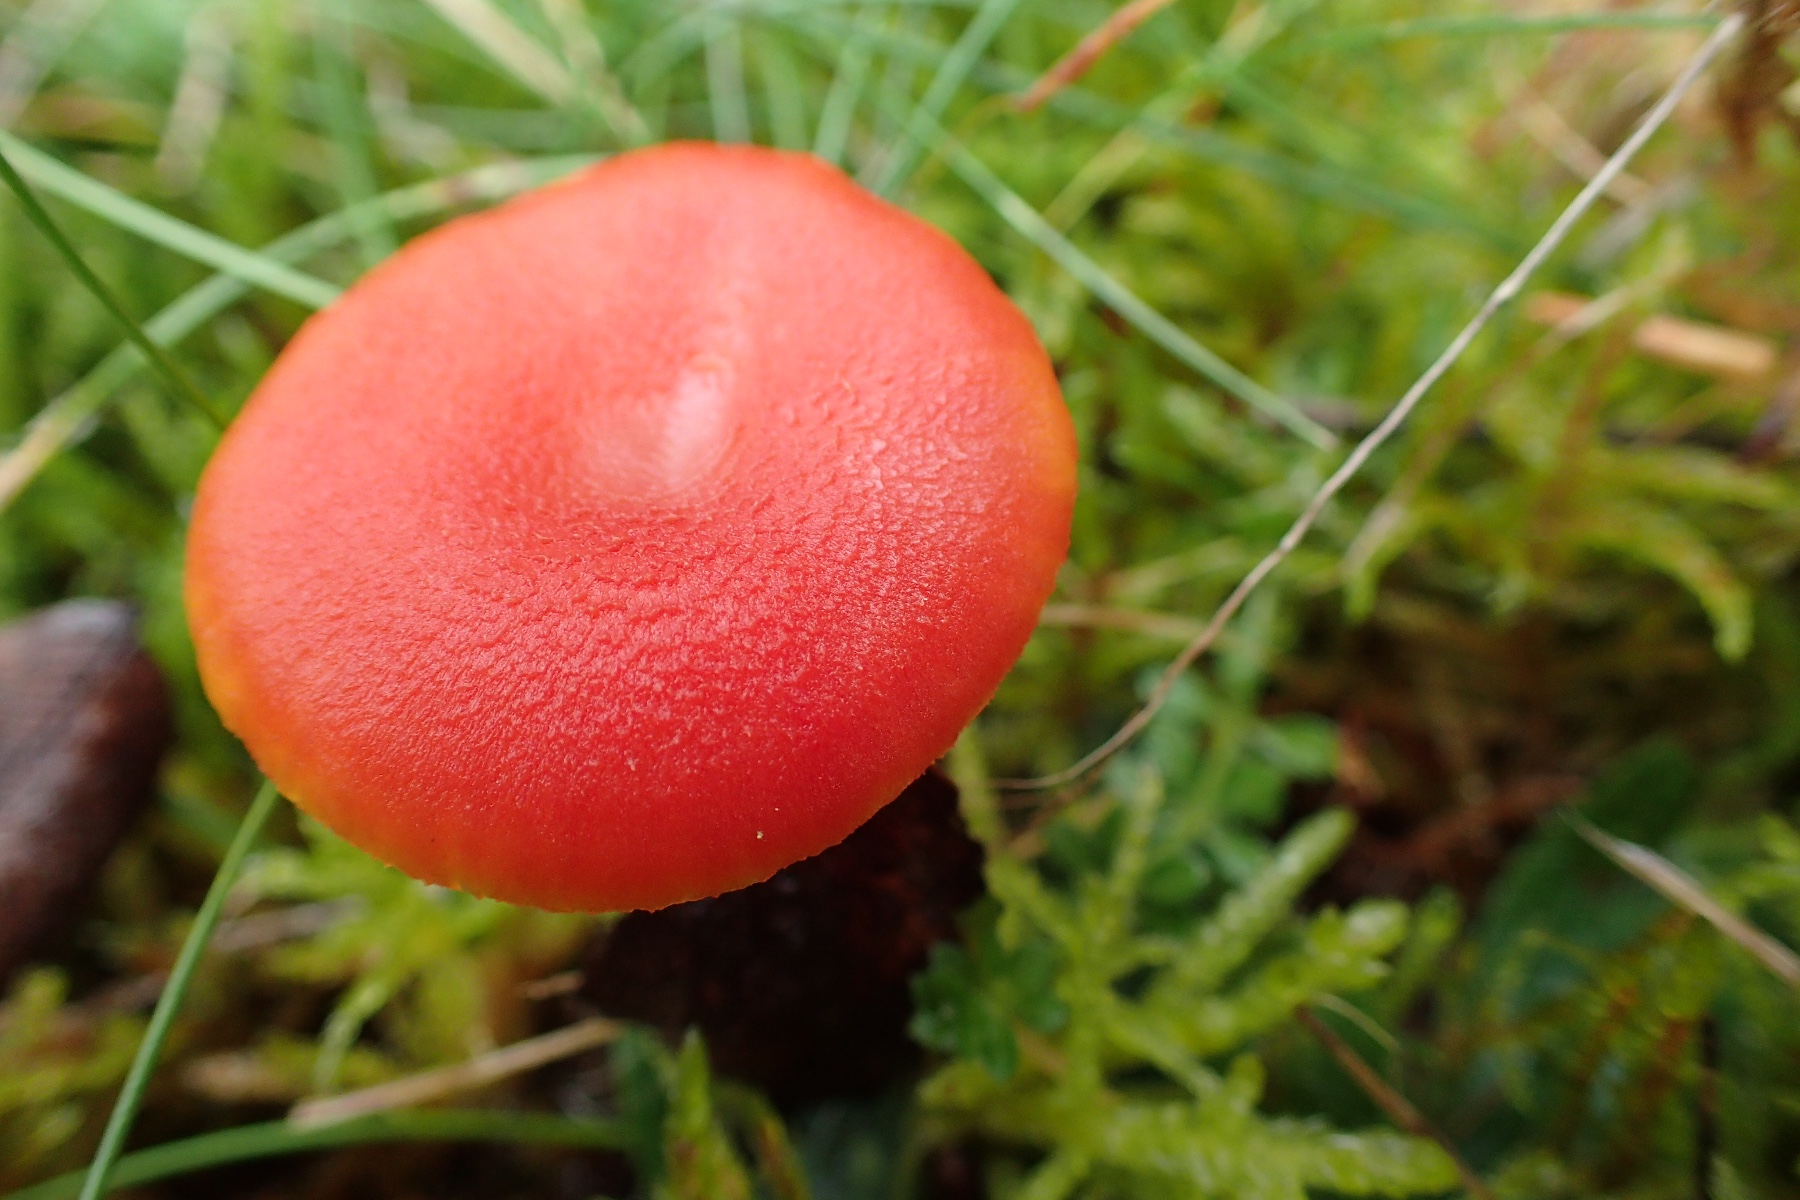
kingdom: Fungi
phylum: Basidiomycota
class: Agaricomycetes
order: Agaricales
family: Hygrophoraceae
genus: Hygrocybe
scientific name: Hygrocybe miniata
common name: mønje-vokshat
